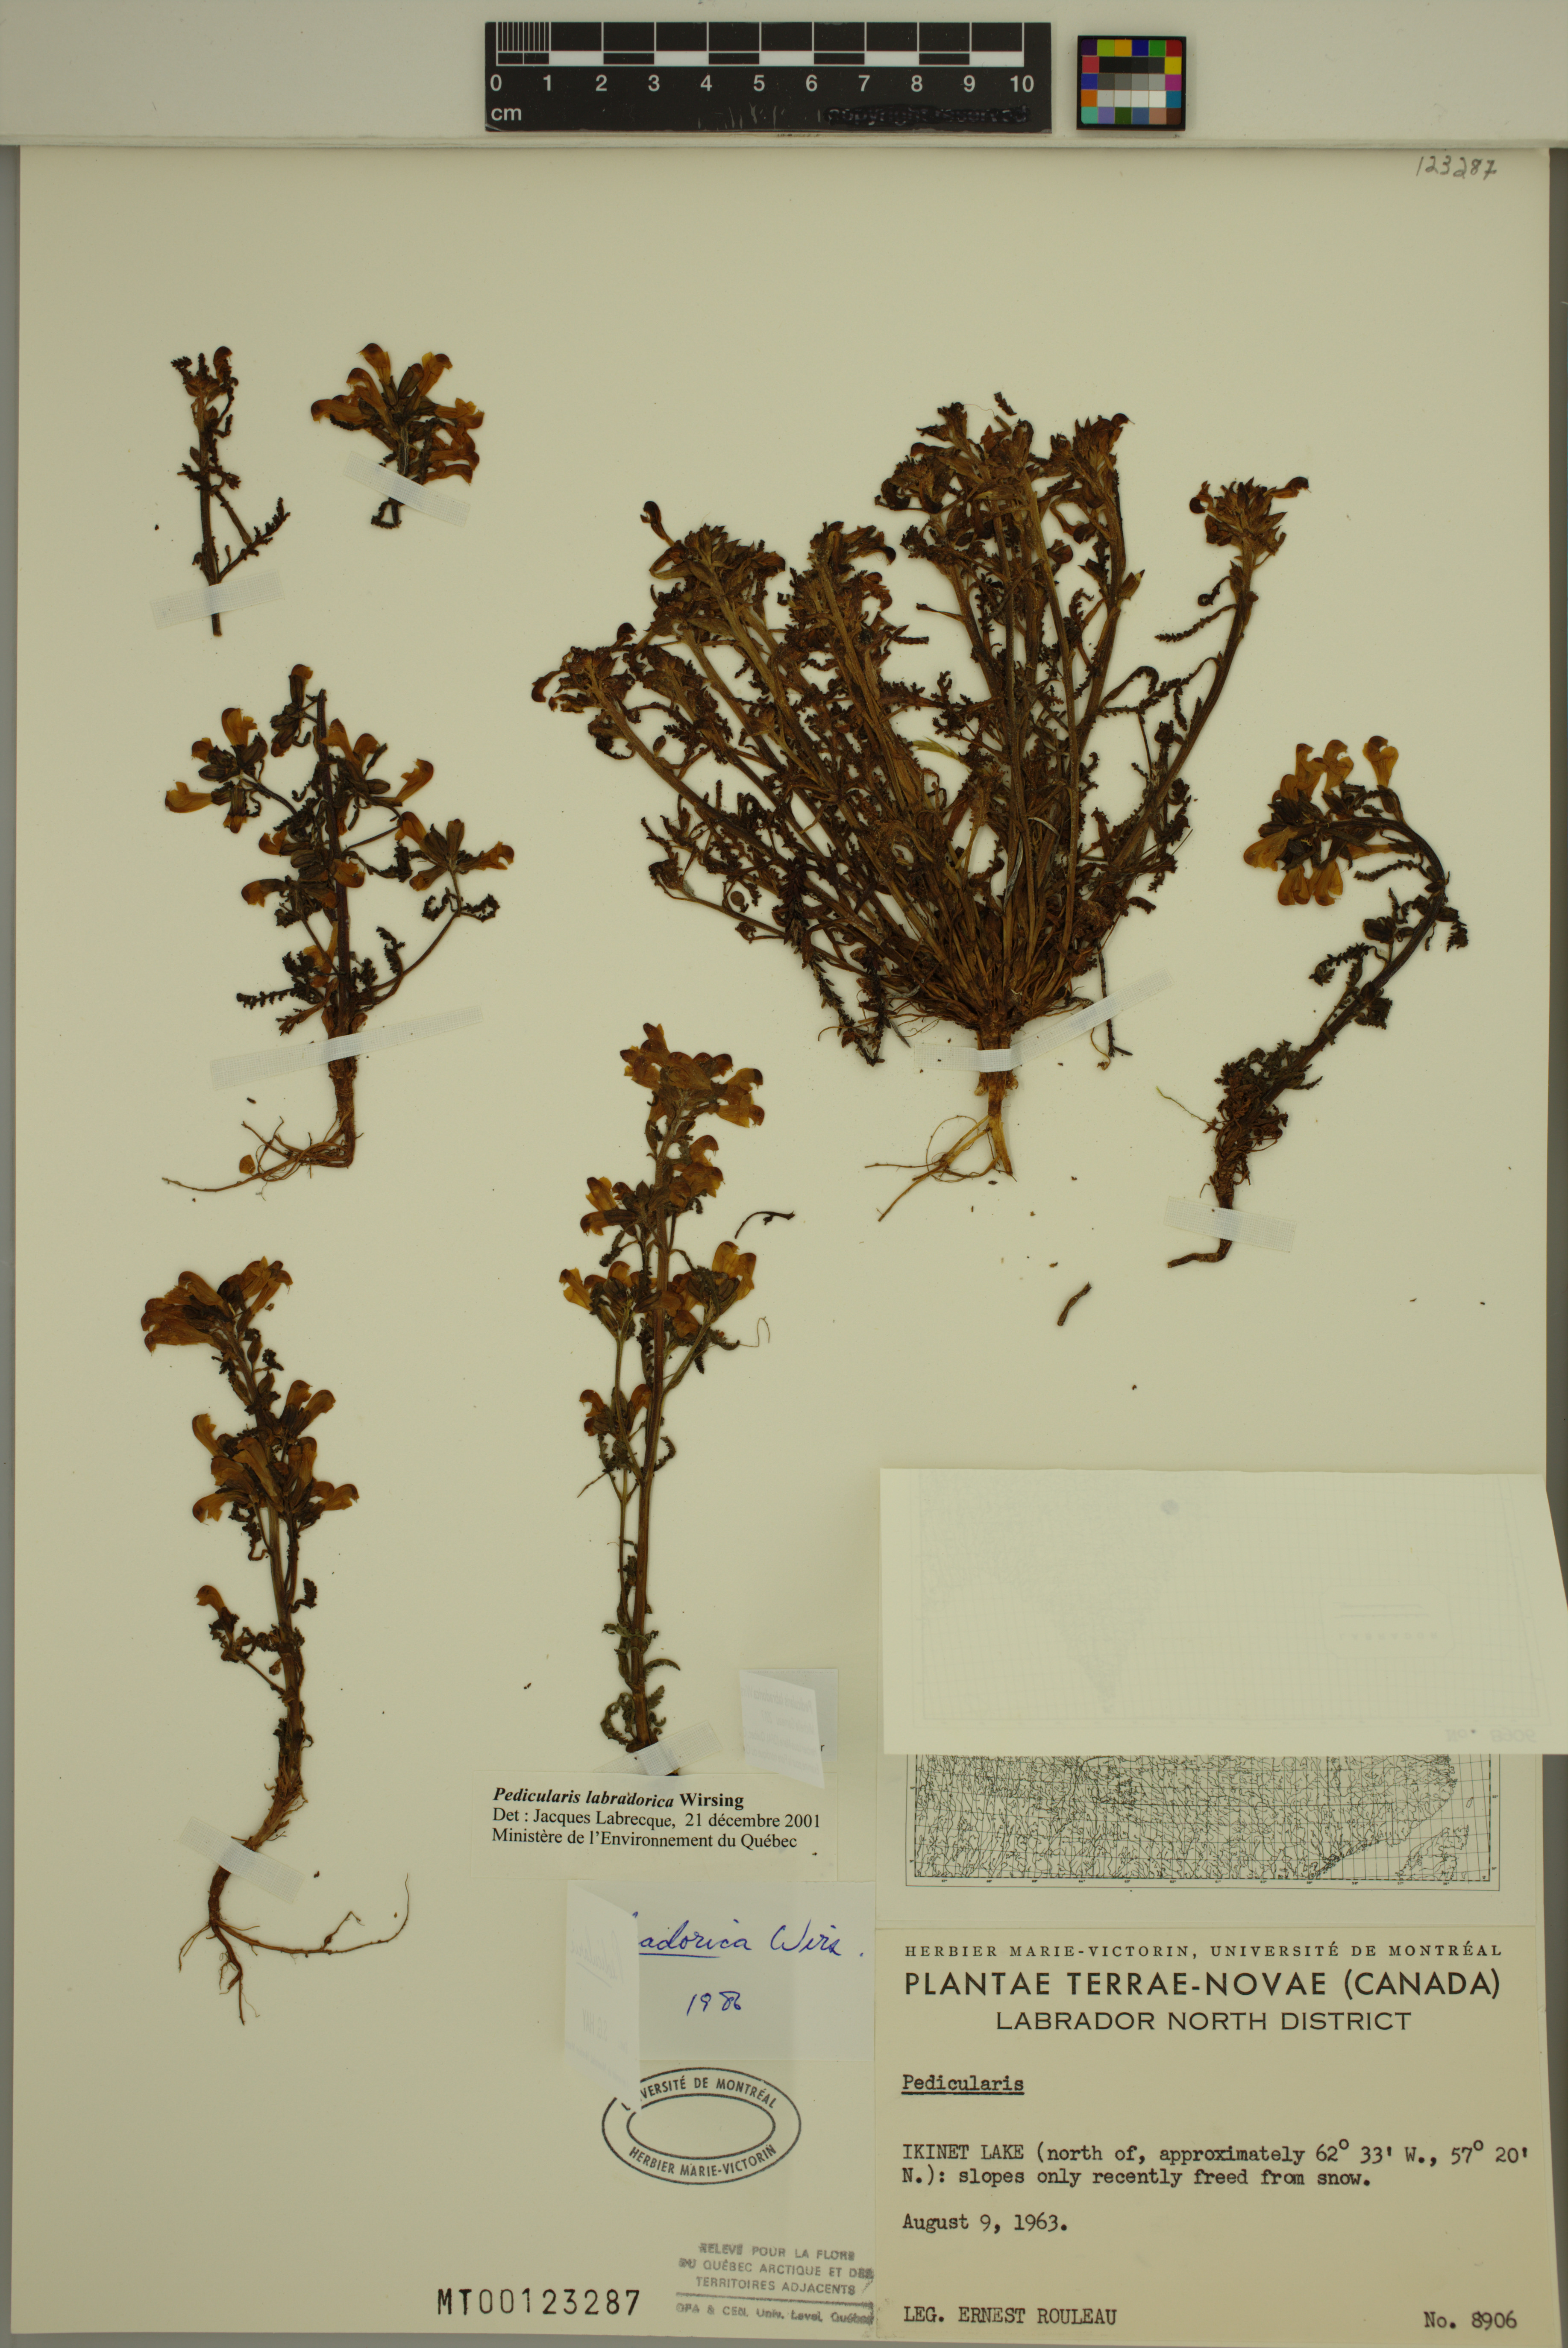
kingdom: Plantae
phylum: Tracheophyta
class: Magnoliopsida
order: Lamiales
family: Orobanchaceae
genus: Pedicularis
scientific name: Pedicularis labradorica
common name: Labrador lousewort
